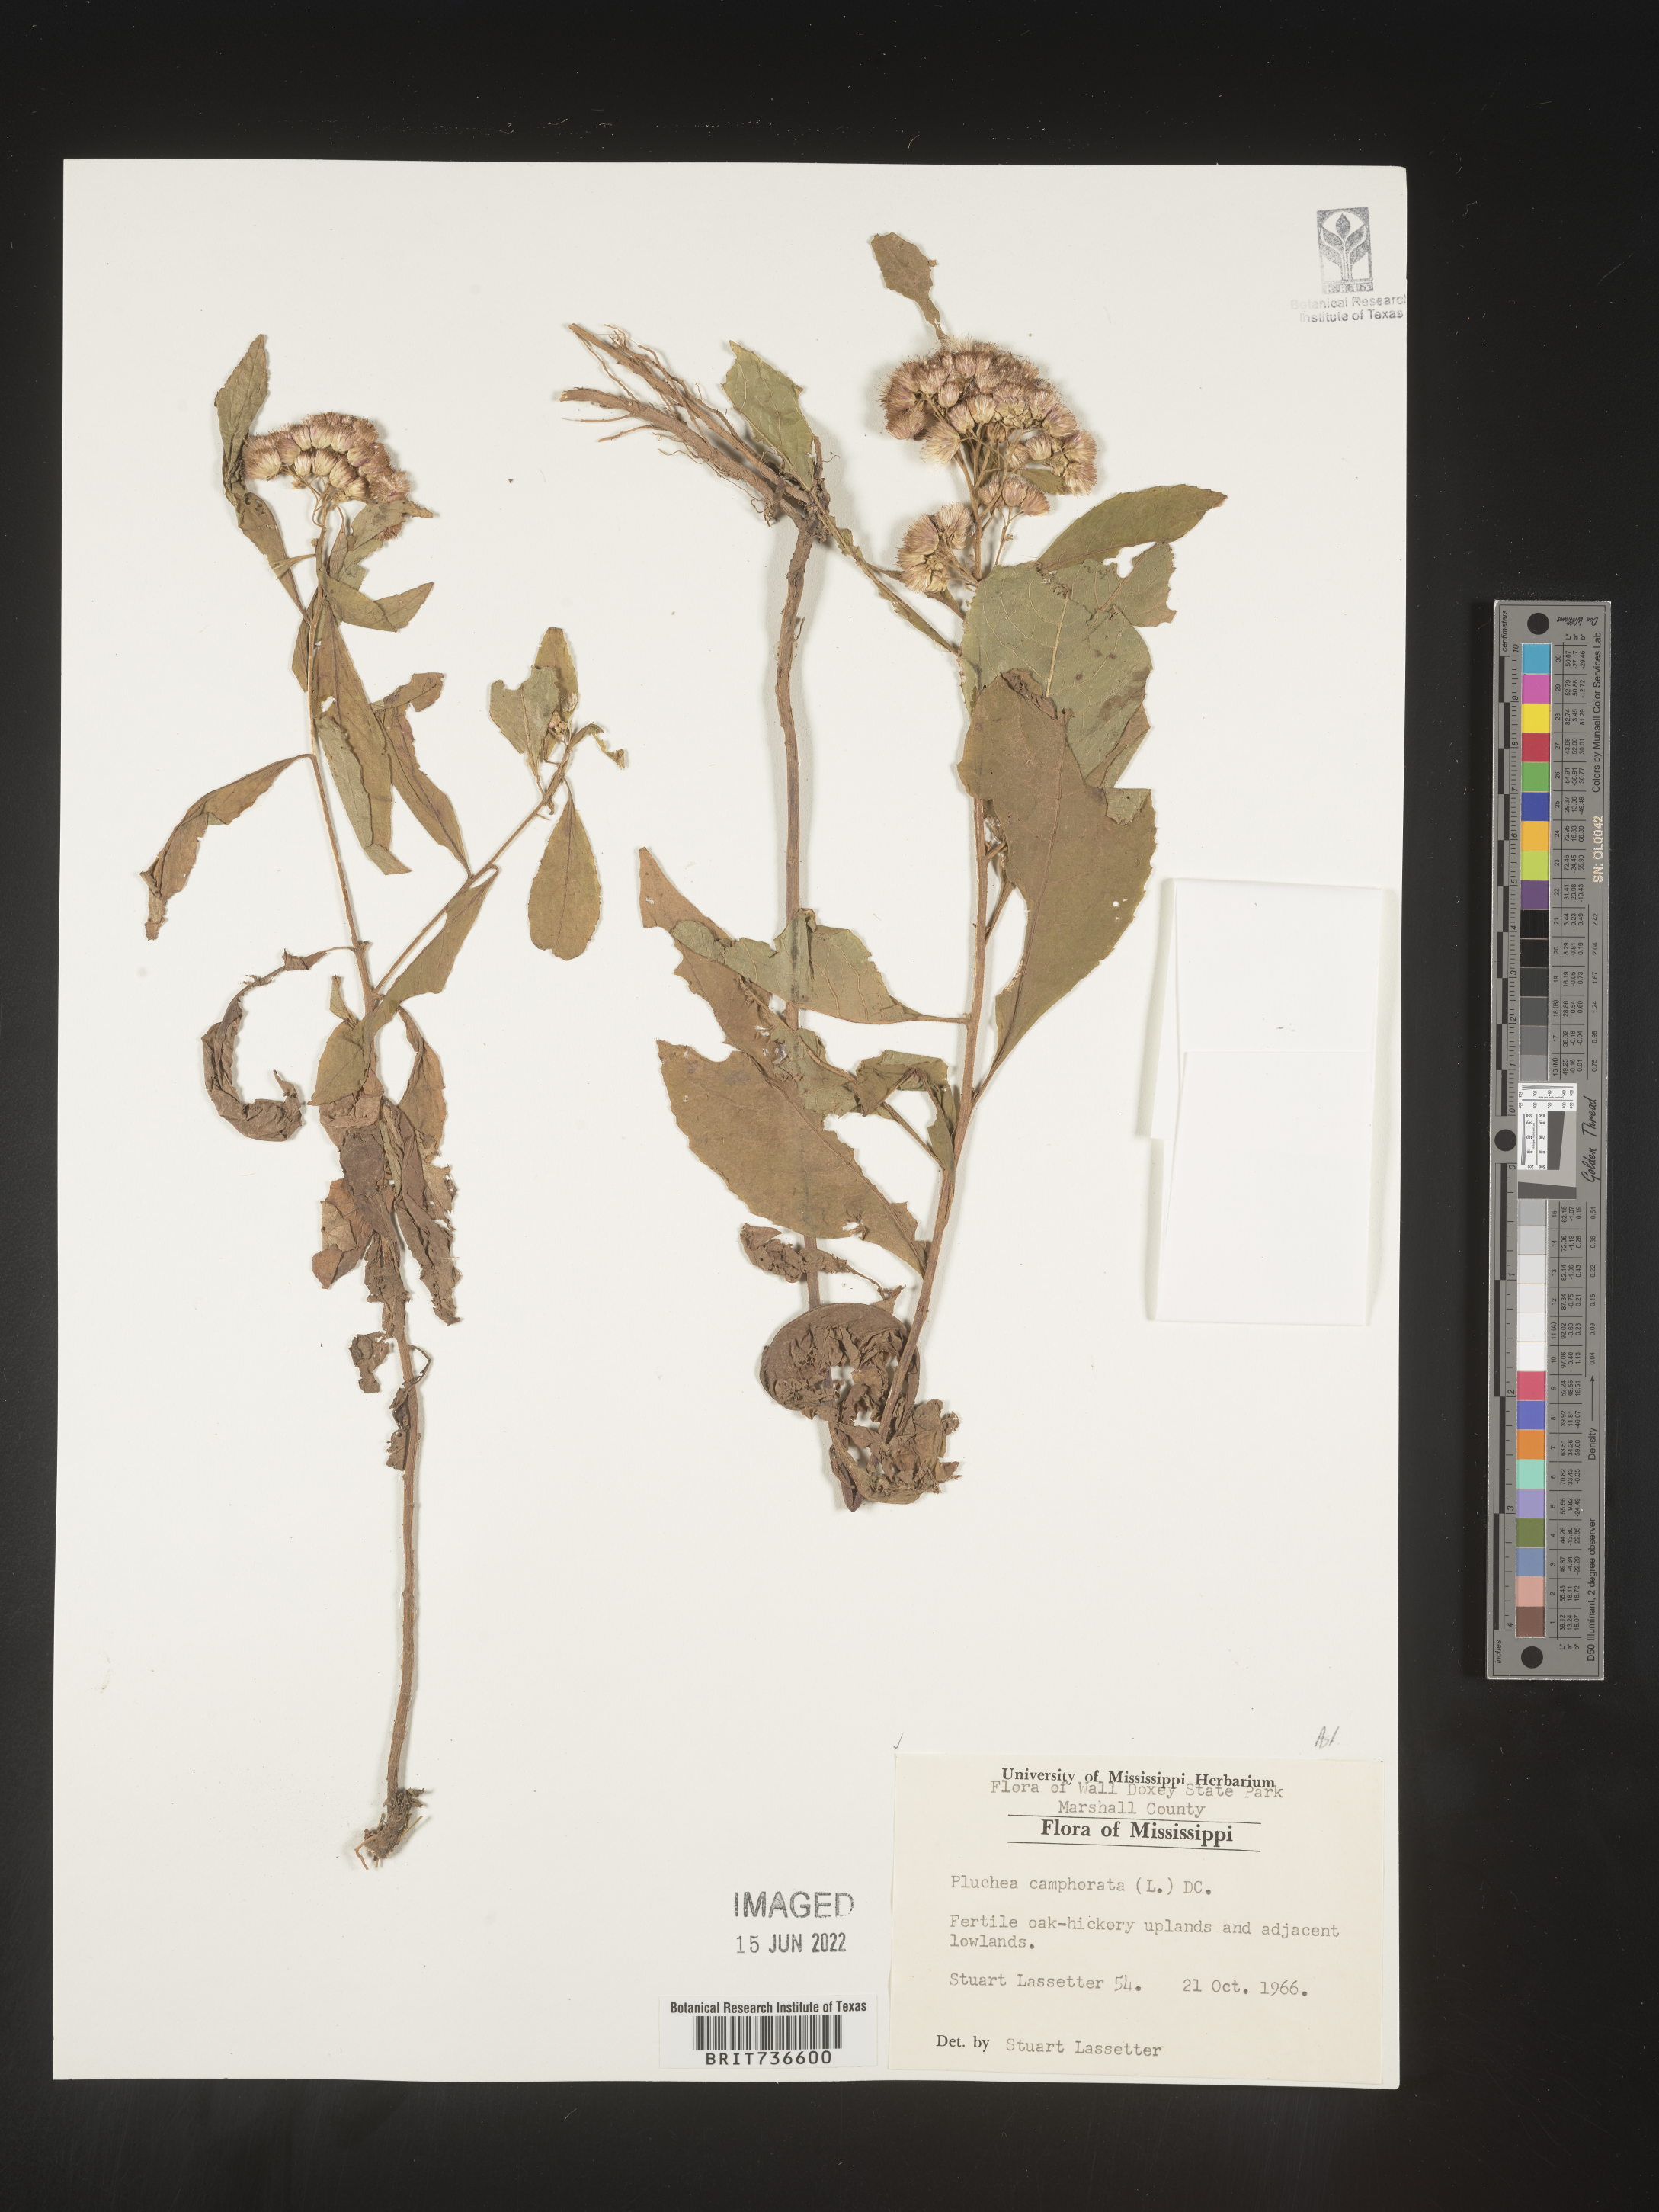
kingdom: Plantae
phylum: Tracheophyta
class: Magnoliopsida
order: Asterales
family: Asteraceae
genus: Pluchea
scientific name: Pluchea camphorata
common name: Camphor pluchea
